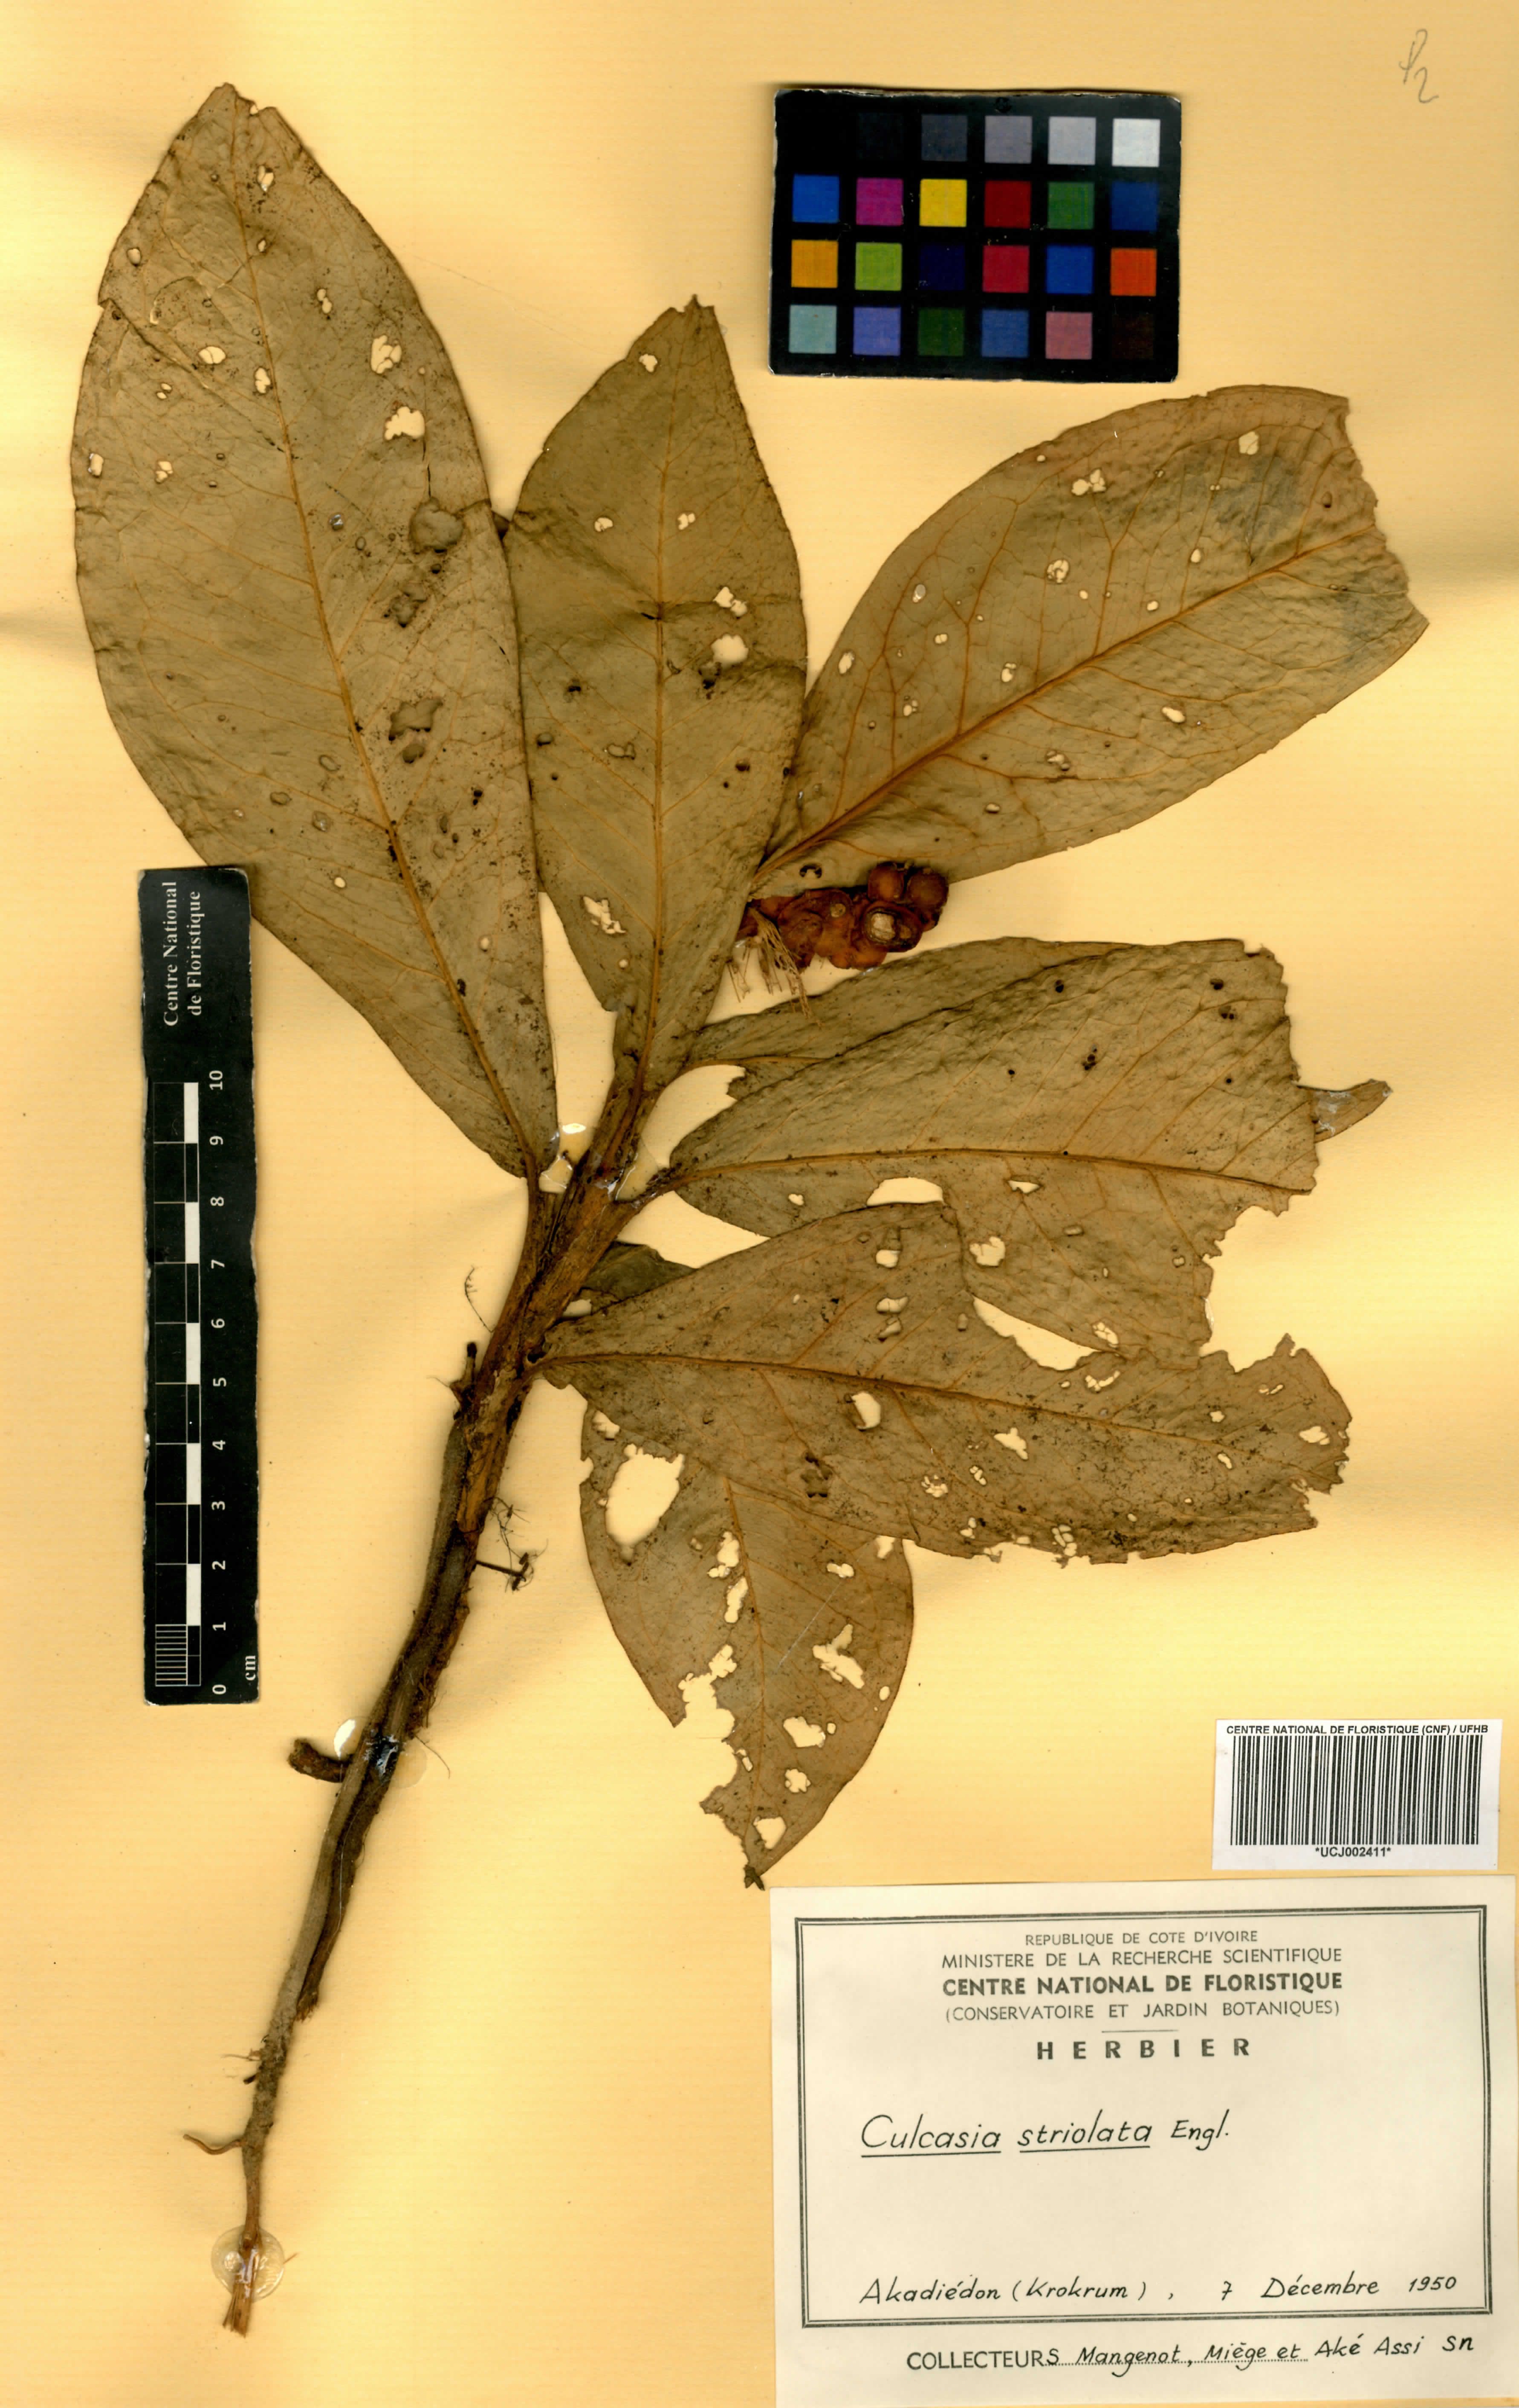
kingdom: Plantae
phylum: Tracheophyta
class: Liliopsida
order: Alismatales
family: Araceae
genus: Culcasia
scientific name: Culcasia striolata
